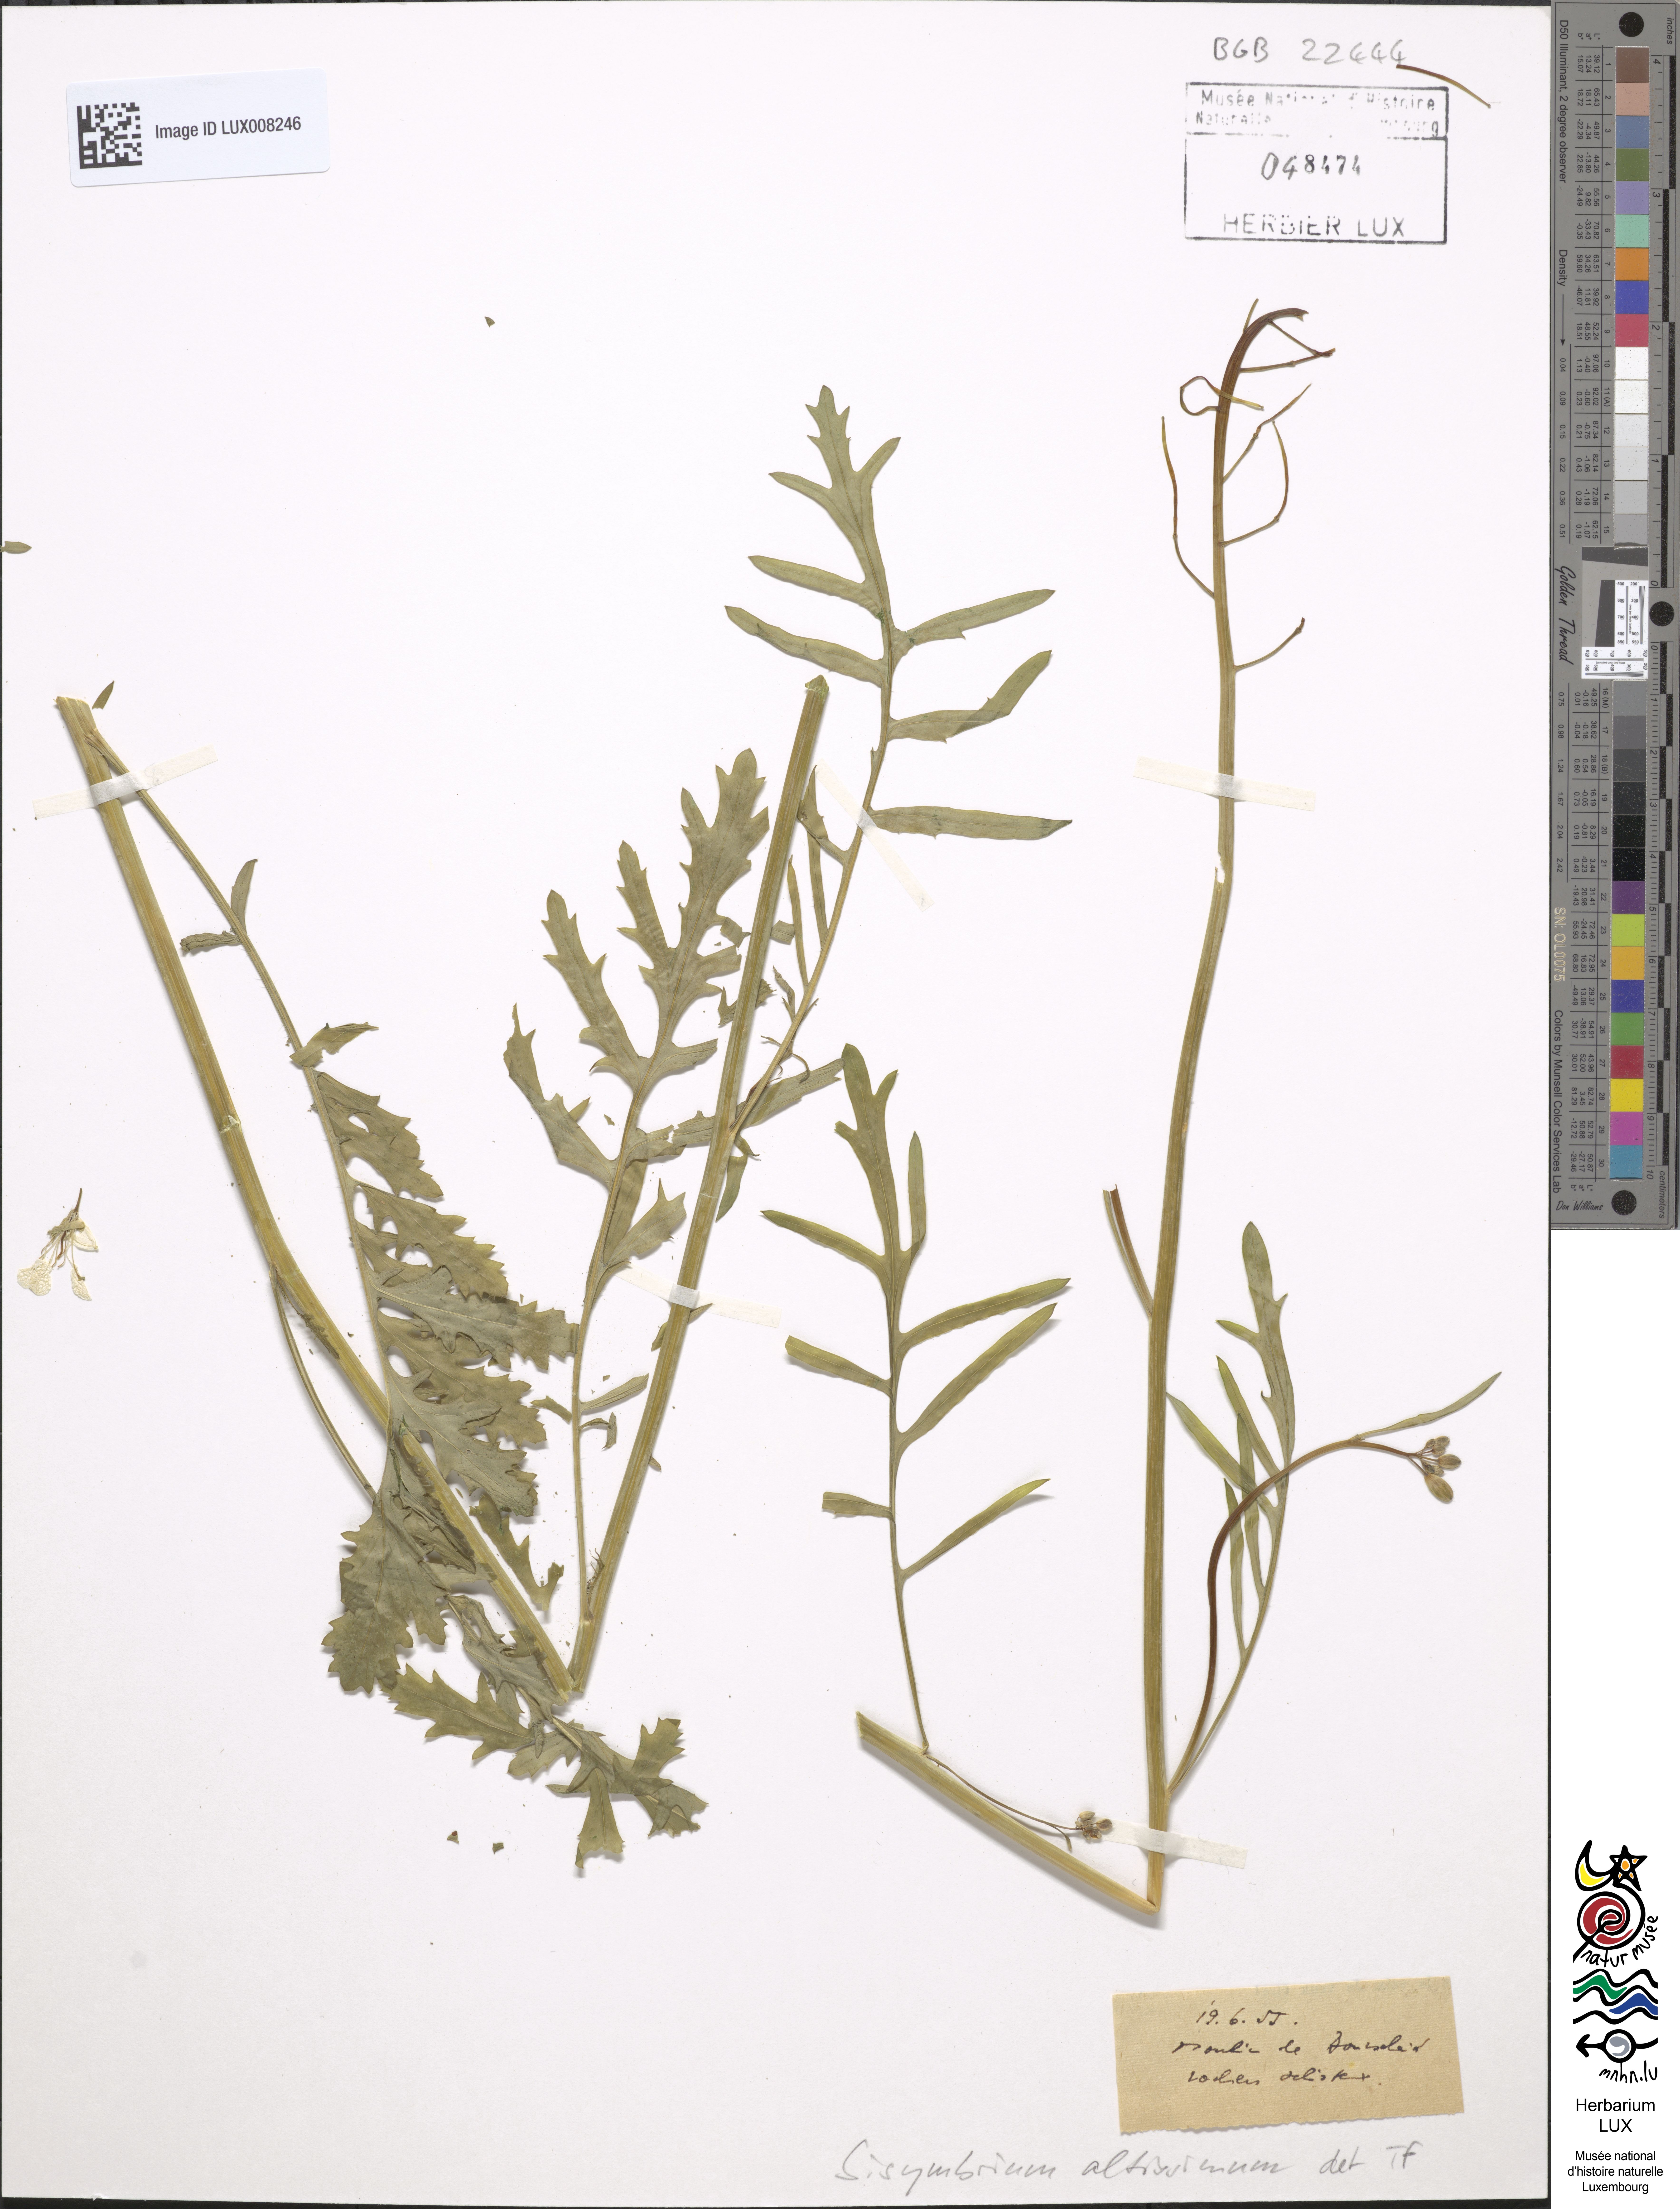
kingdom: Plantae
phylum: Tracheophyta
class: Magnoliopsida
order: Brassicales
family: Brassicaceae
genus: Sisymbrium
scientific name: Sisymbrium altissimum
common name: Tall rocket
